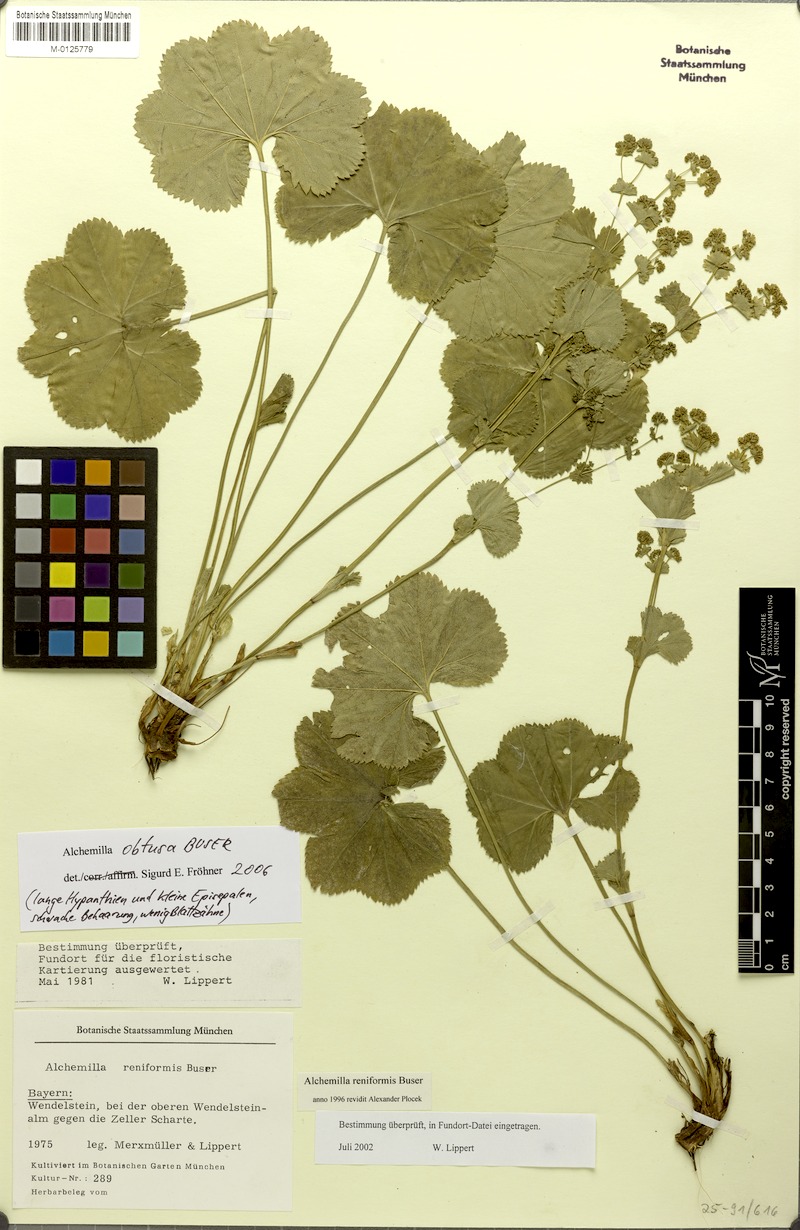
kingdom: Plantae
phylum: Tracheophyta
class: Magnoliopsida
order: Rosales
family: Rosaceae
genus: Alchemilla
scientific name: Alchemilla obtusa
